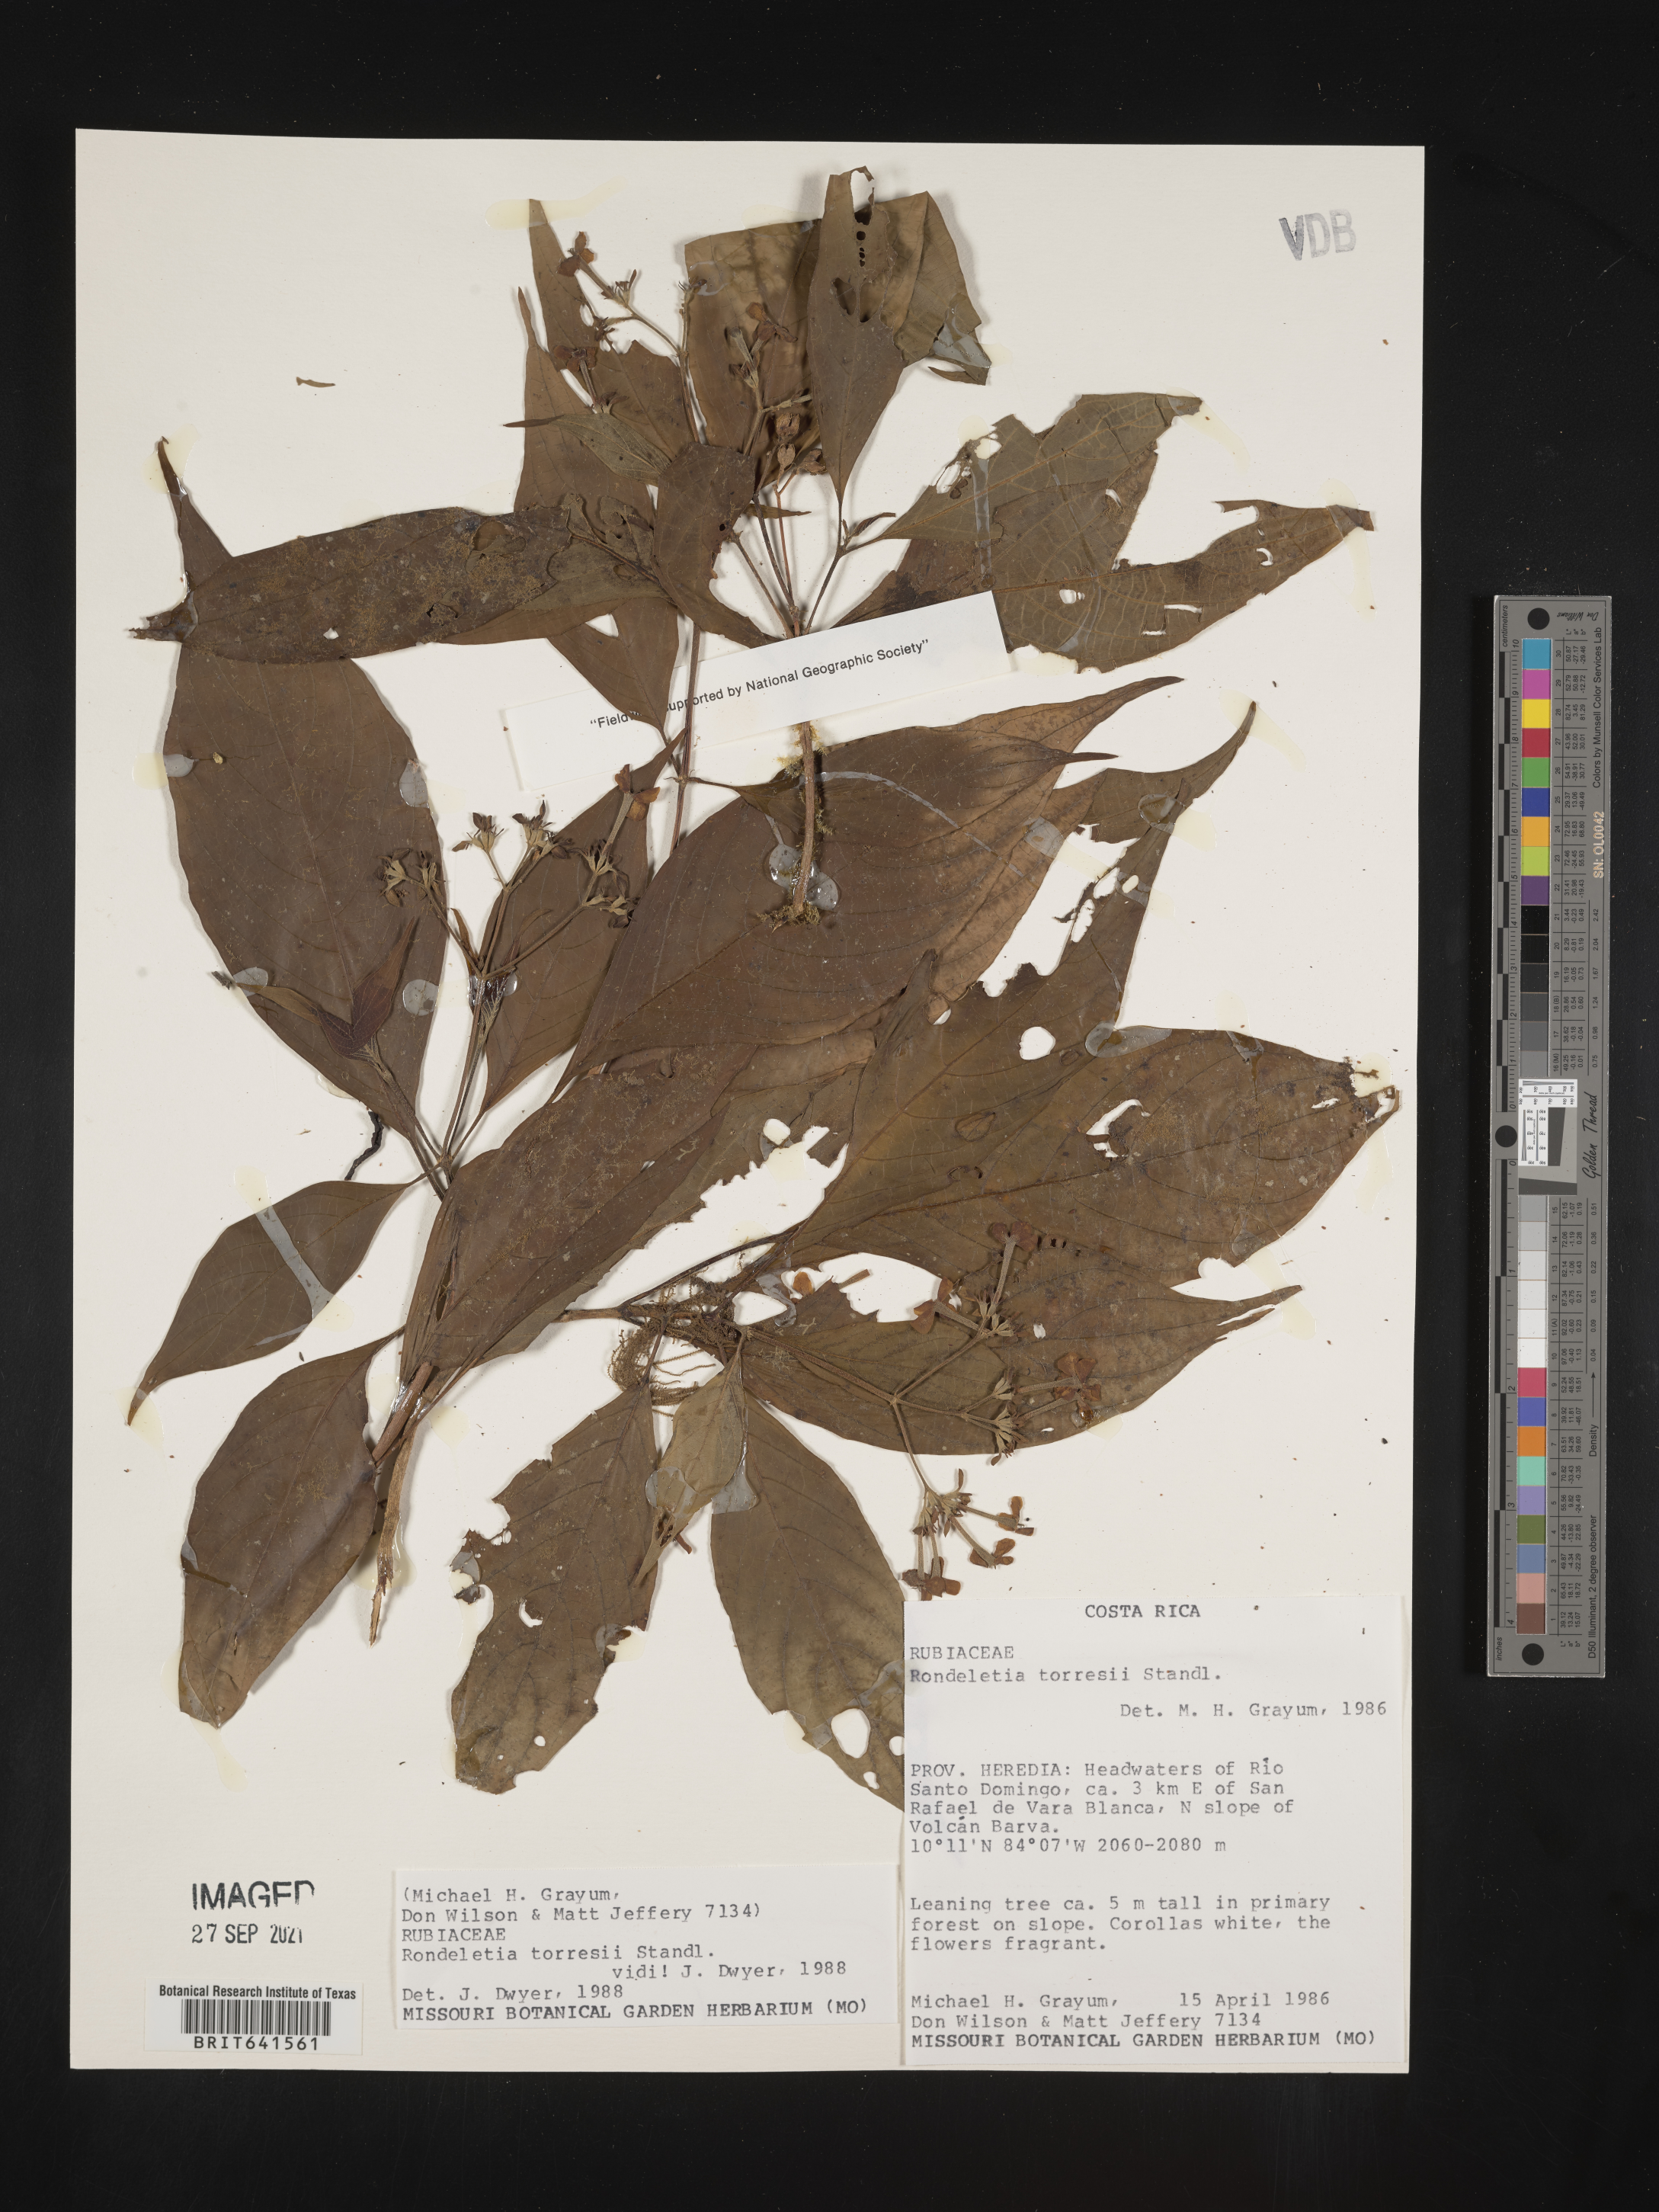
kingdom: Plantae
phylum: Tracheophyta
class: Magnoliopsida
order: Gentianales
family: Rubiaceae
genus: Rondeletia
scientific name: Rondeletia
